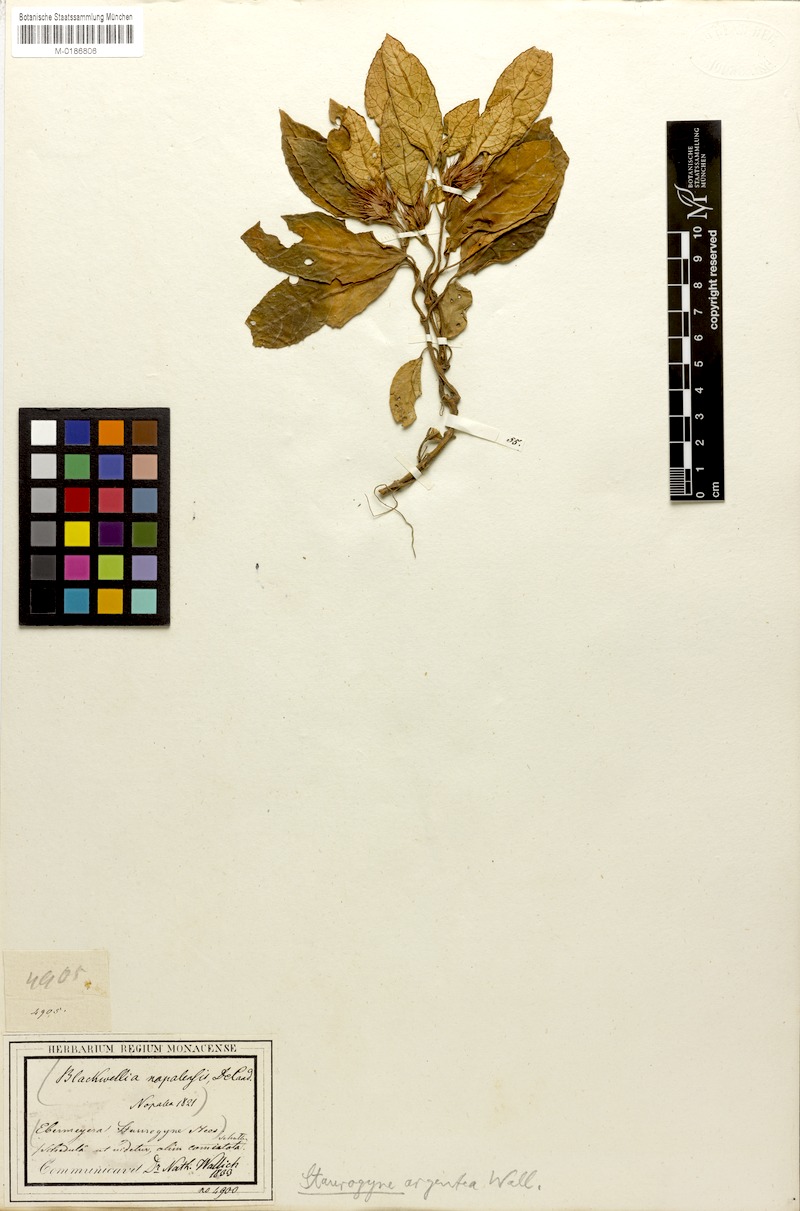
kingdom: Plantae
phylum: Tracheophyta
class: Magnoliopsida
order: Lamiales
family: Acanthaceae
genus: Staurogyne
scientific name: Staurogyne argentea
